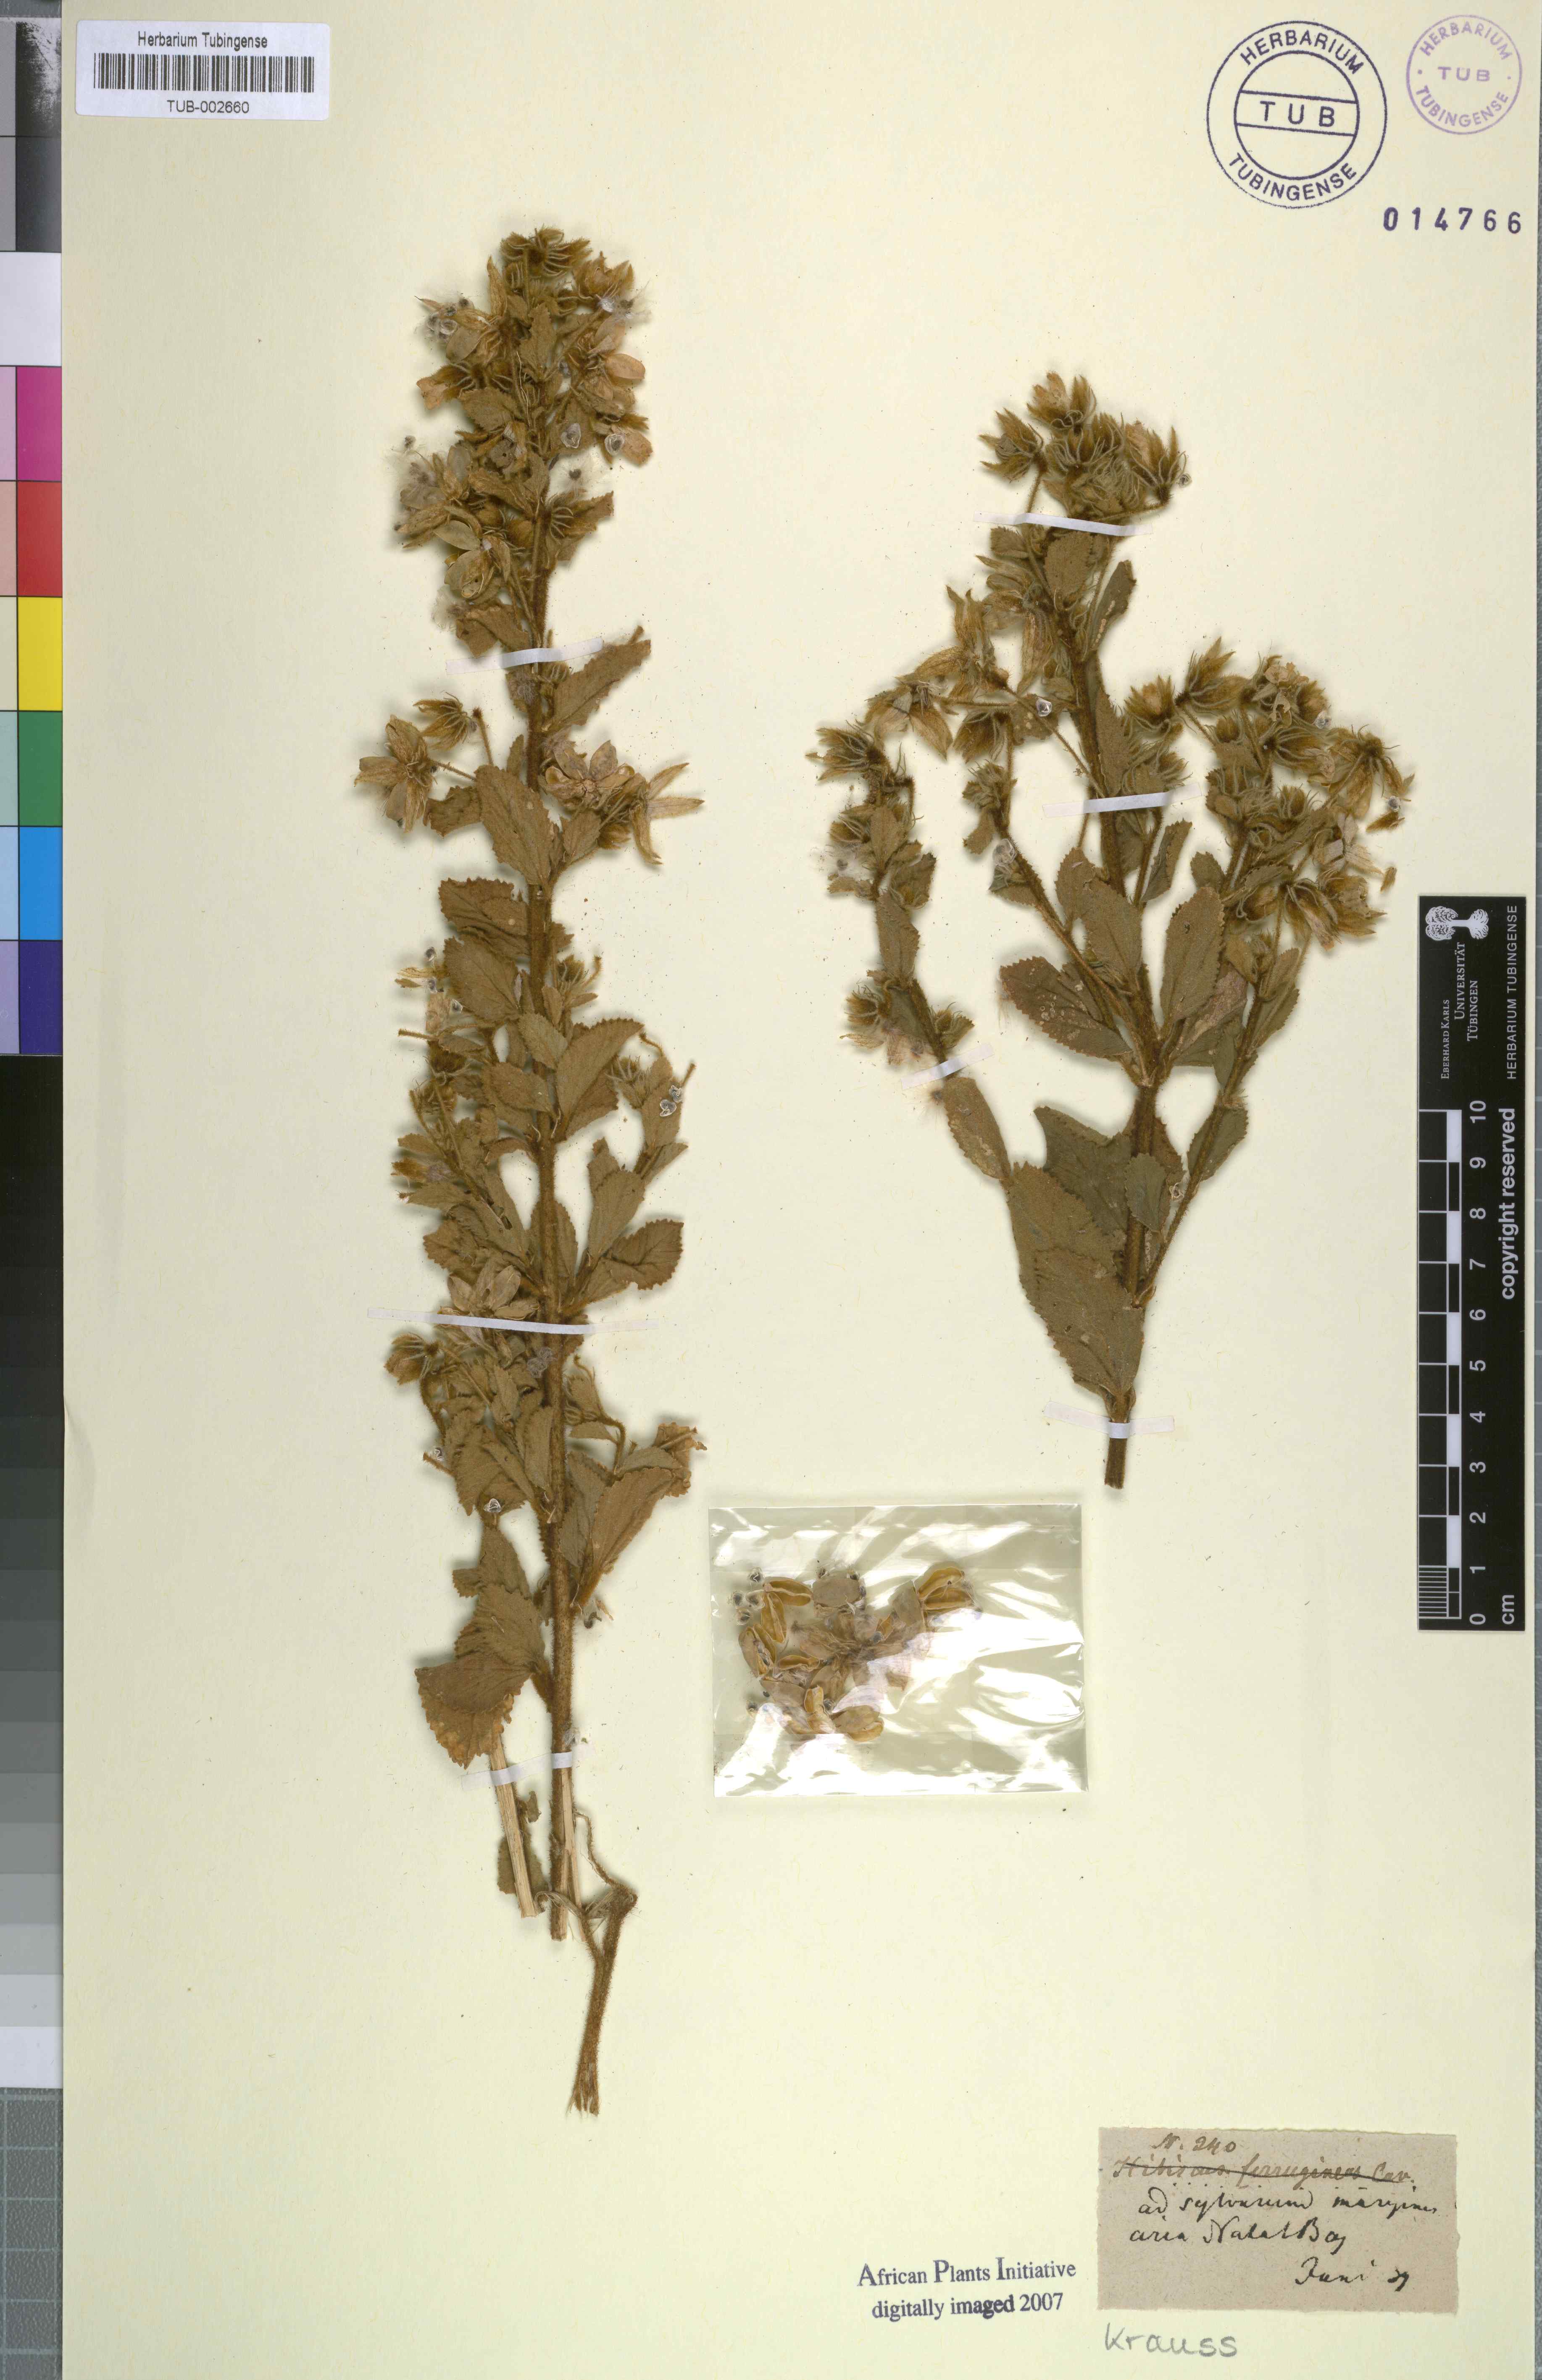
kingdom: Plantae
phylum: Tracheophyta
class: Magnoliopsida
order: Malvales
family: Malvaceae
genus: Hibiscus
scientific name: Hibiscus ferrugineus
